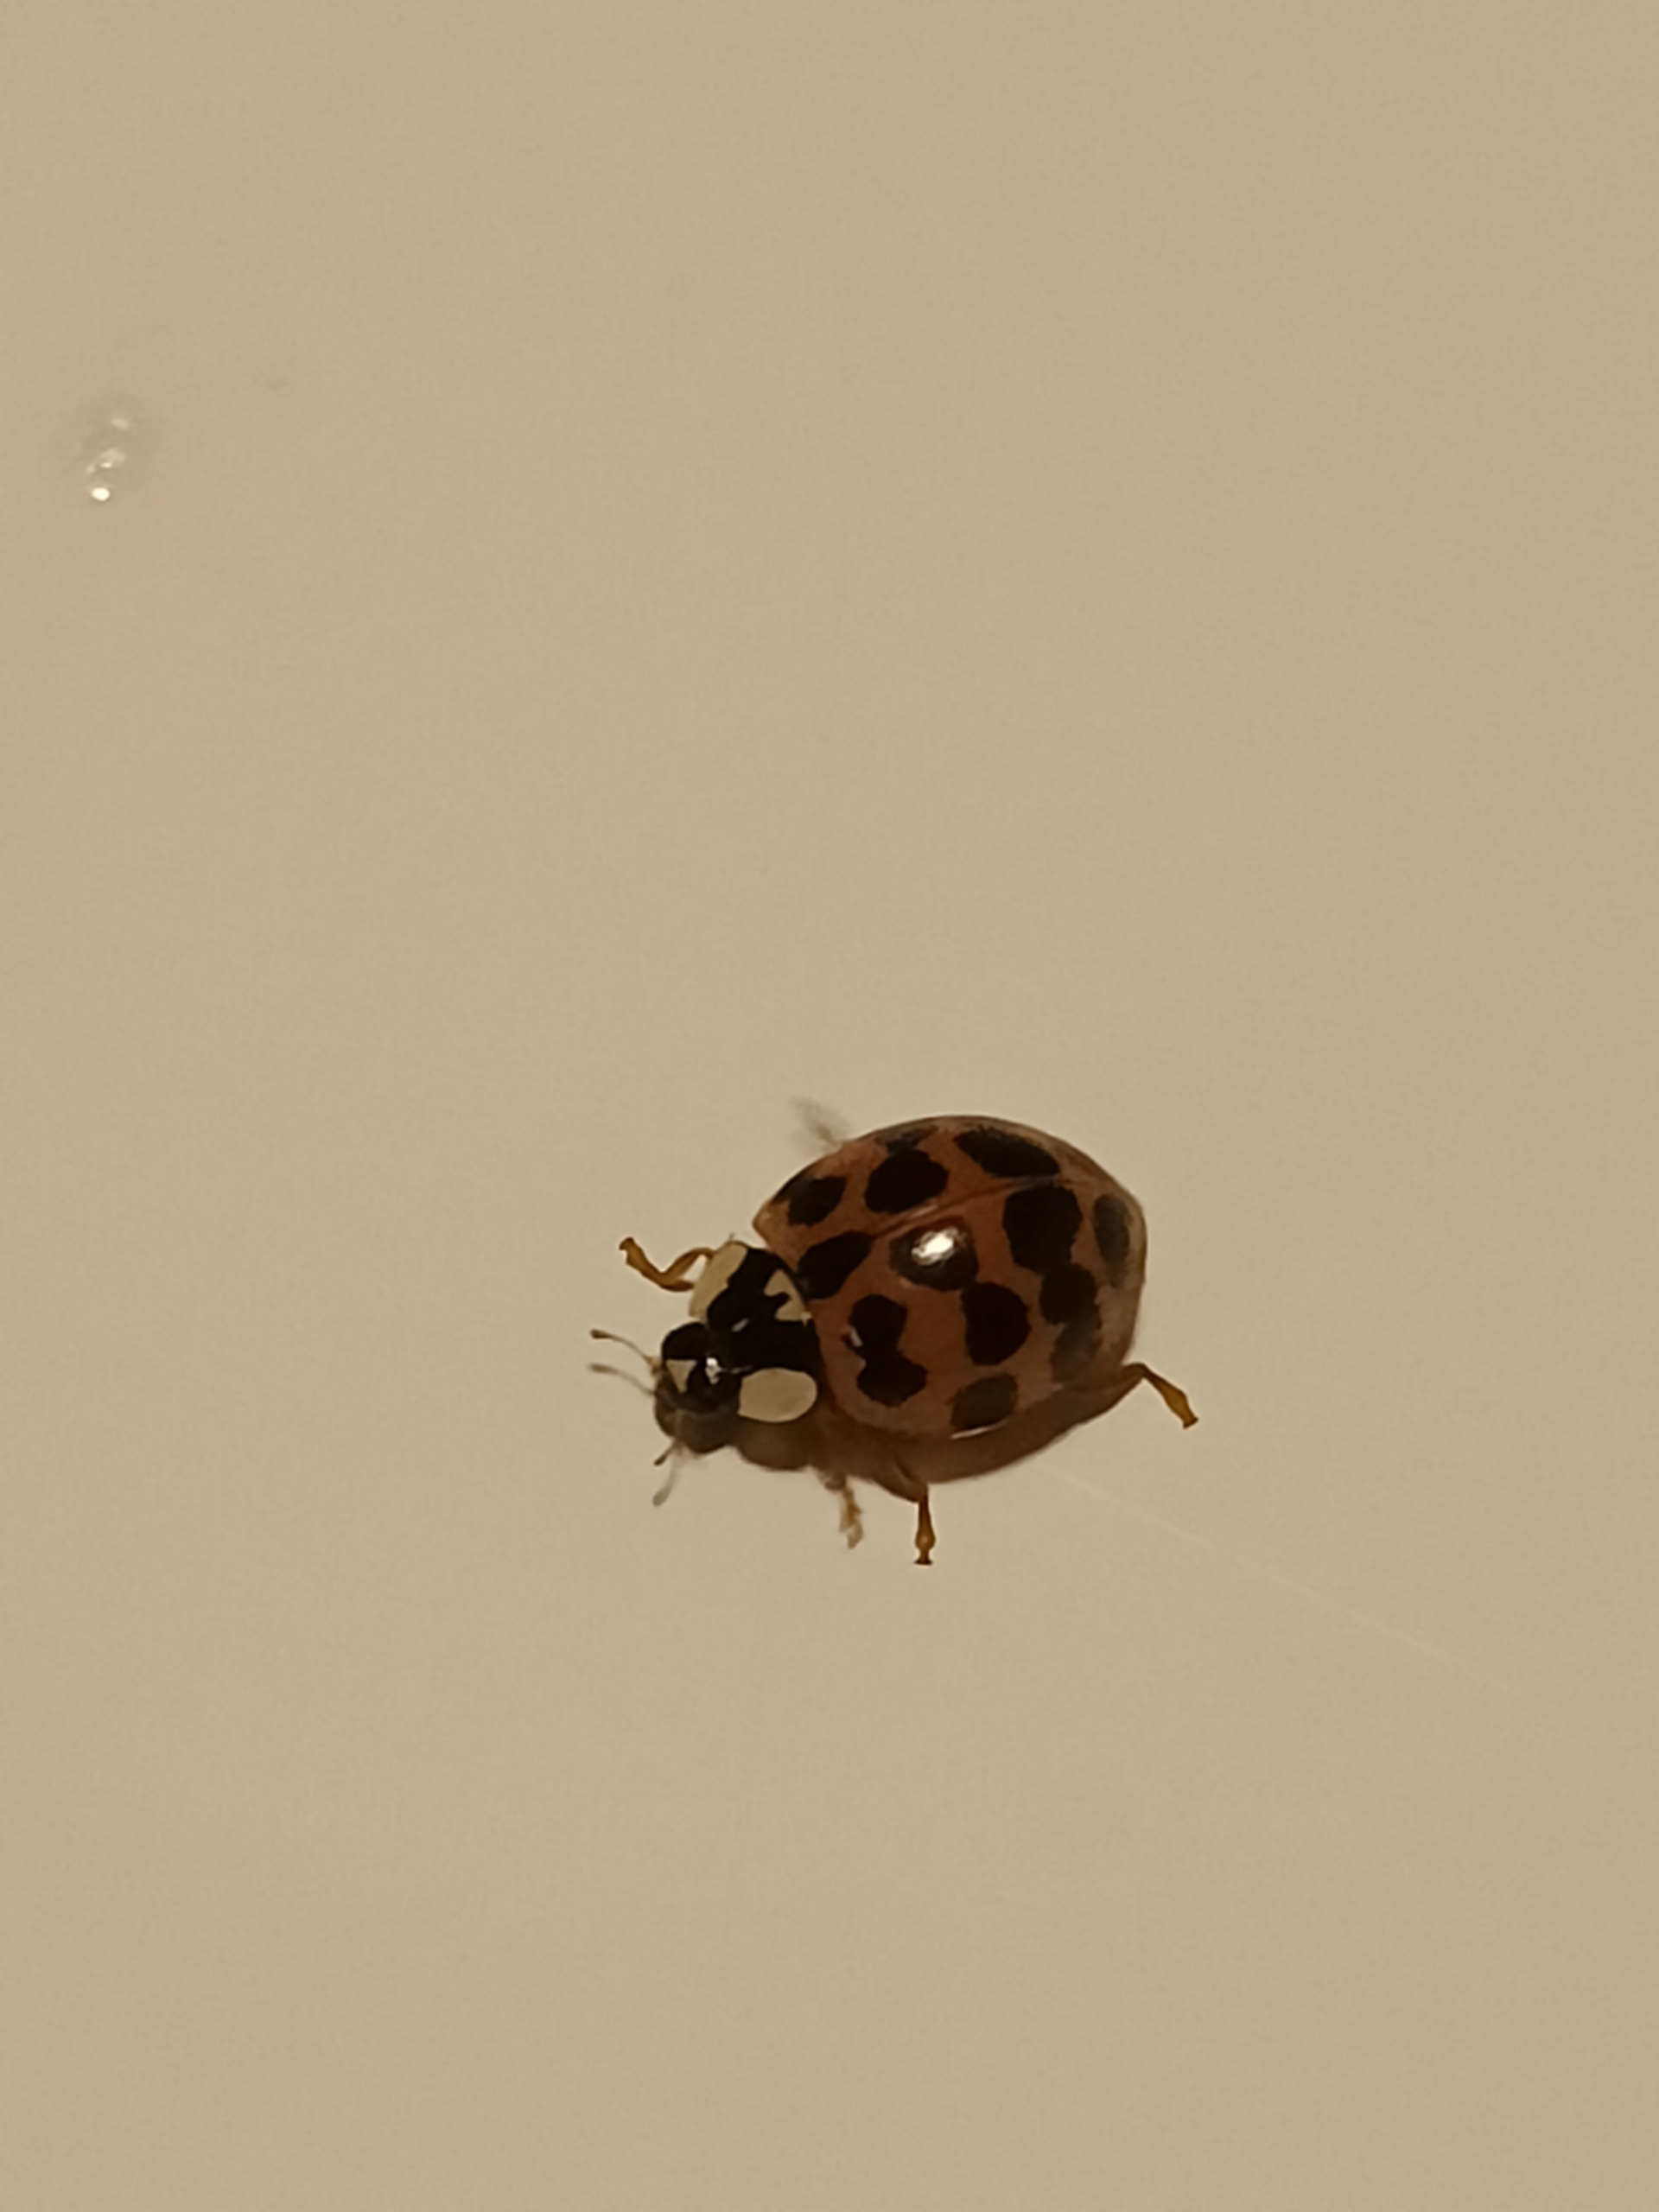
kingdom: Animalia
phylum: Arthropoda
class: Insecta
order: Coleoptera
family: Coccinellidae
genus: Harmonia
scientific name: Harmonia axyridis
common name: Harlekinmariehøne
